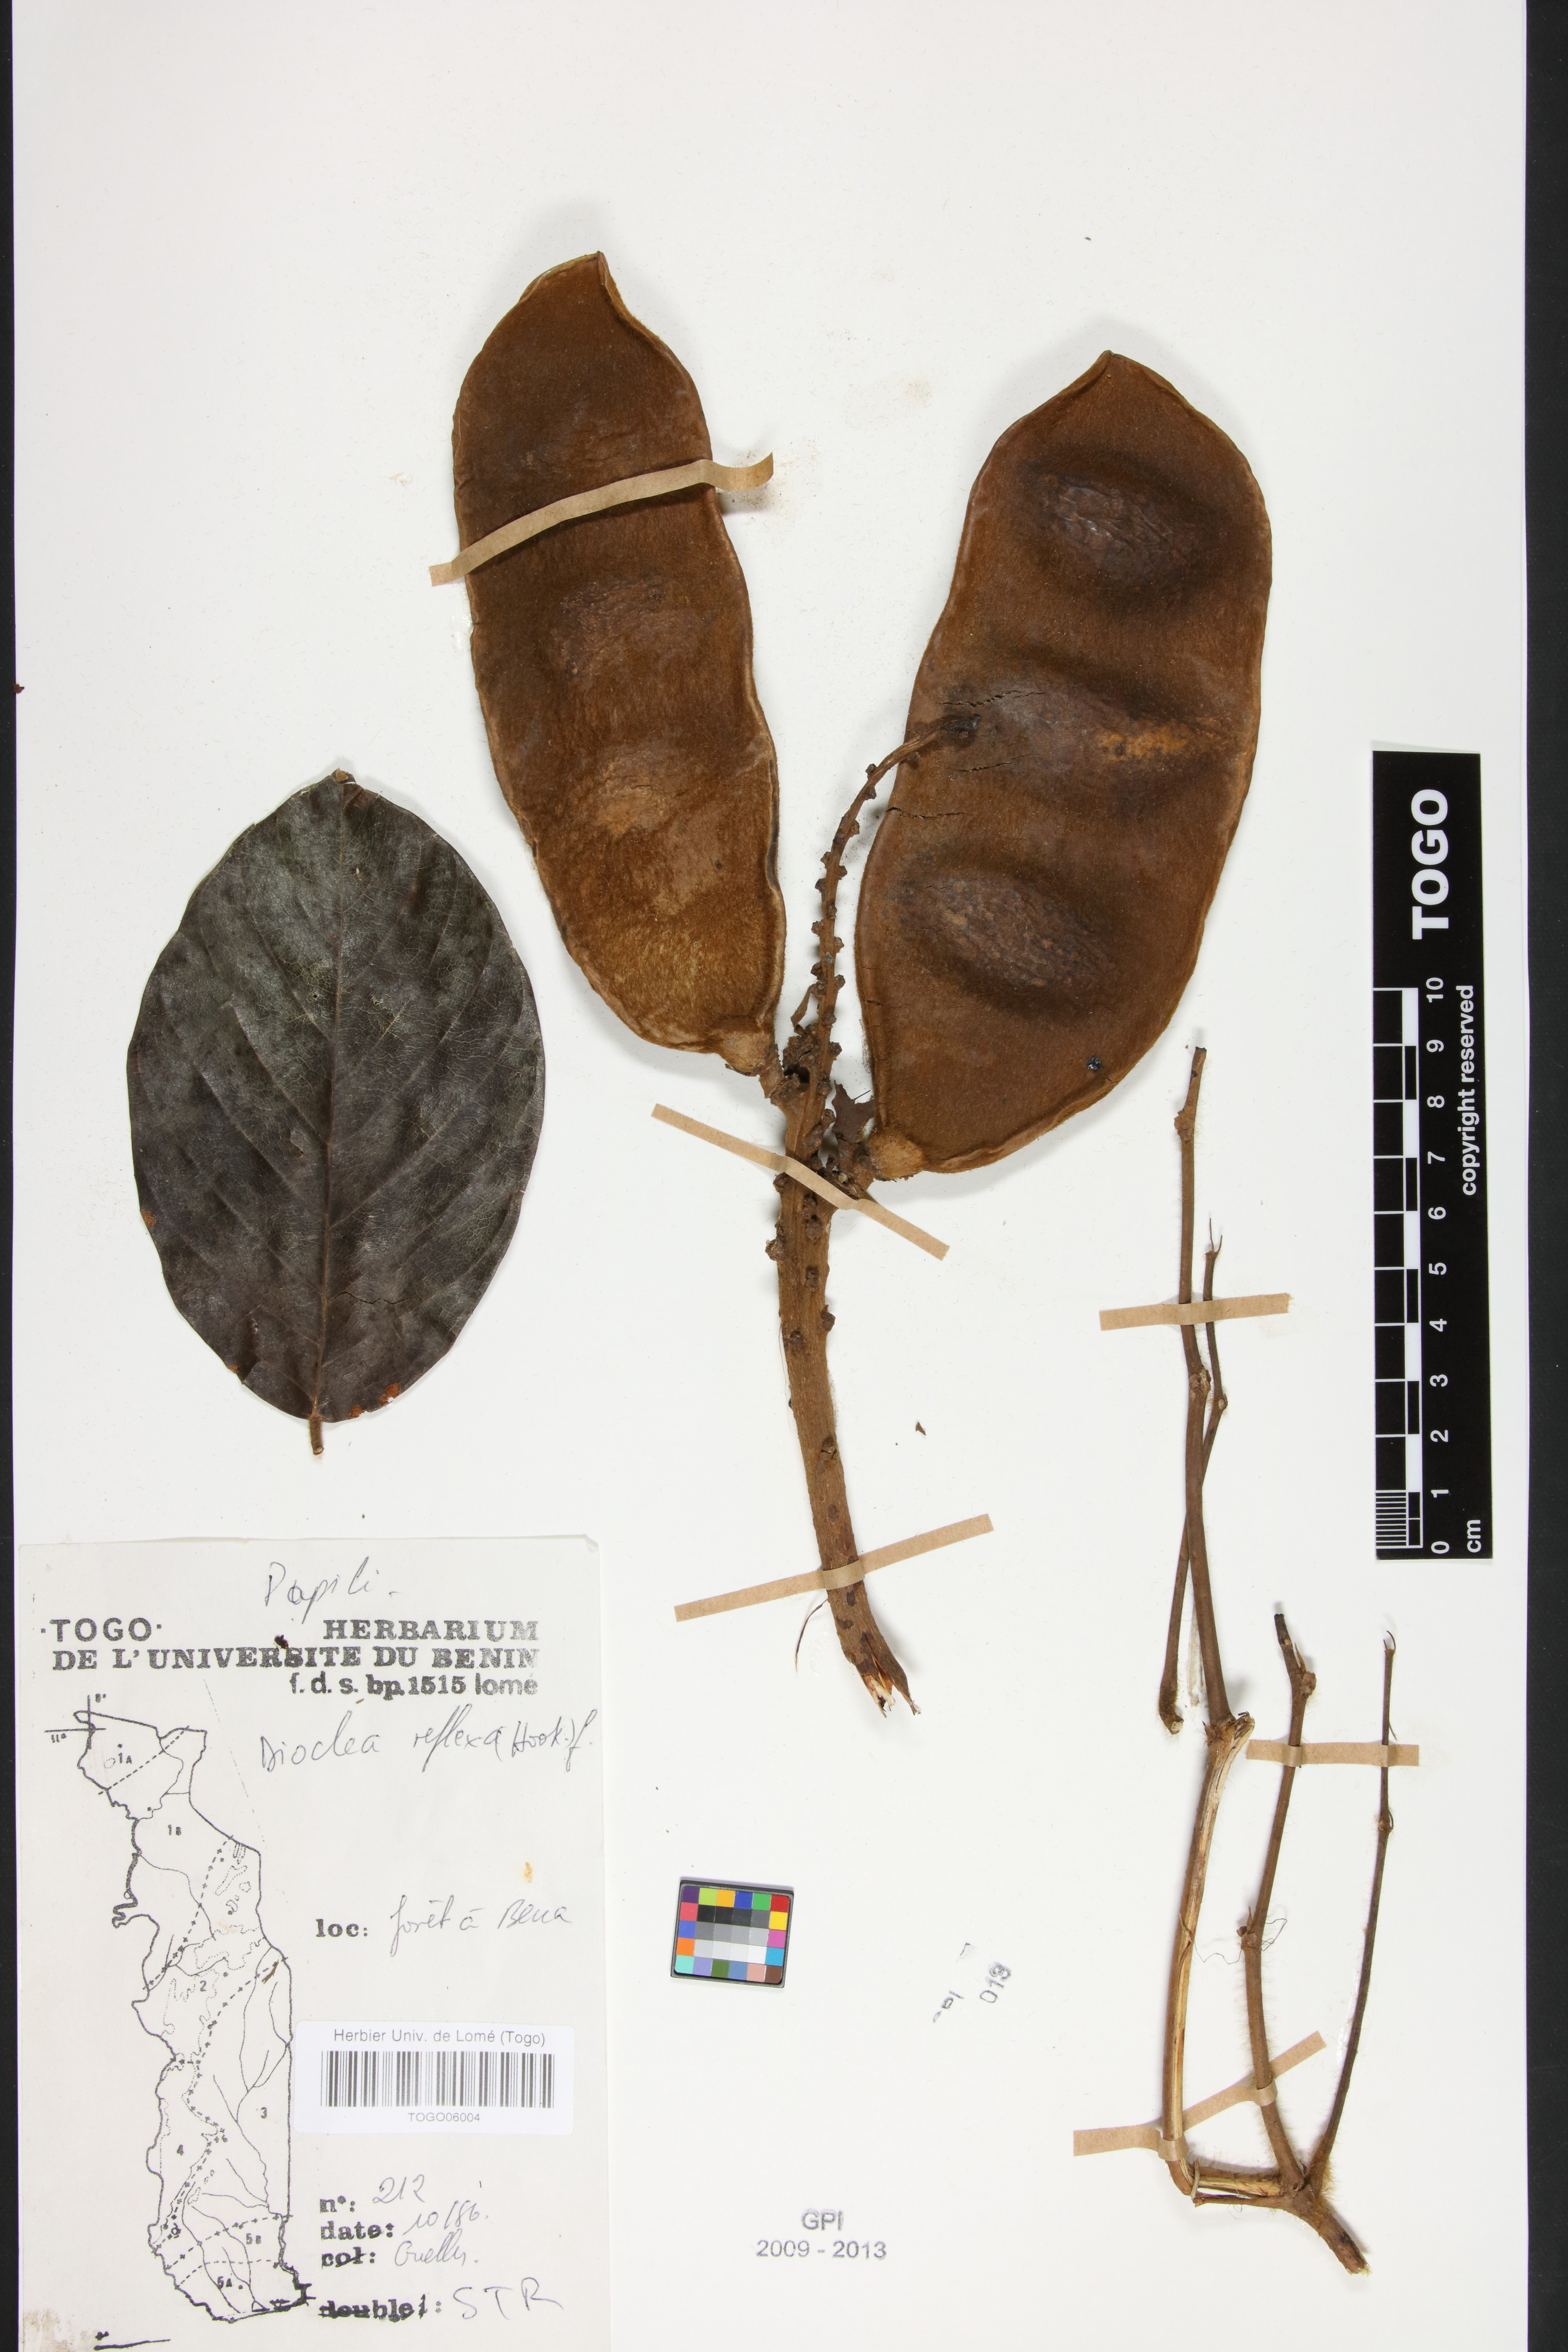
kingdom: Plantae
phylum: Tracheophyta
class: Magnoliopsida
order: Fabales
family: Fabaceae
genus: Macropsychanthus
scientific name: Macropsychanthus comosus
